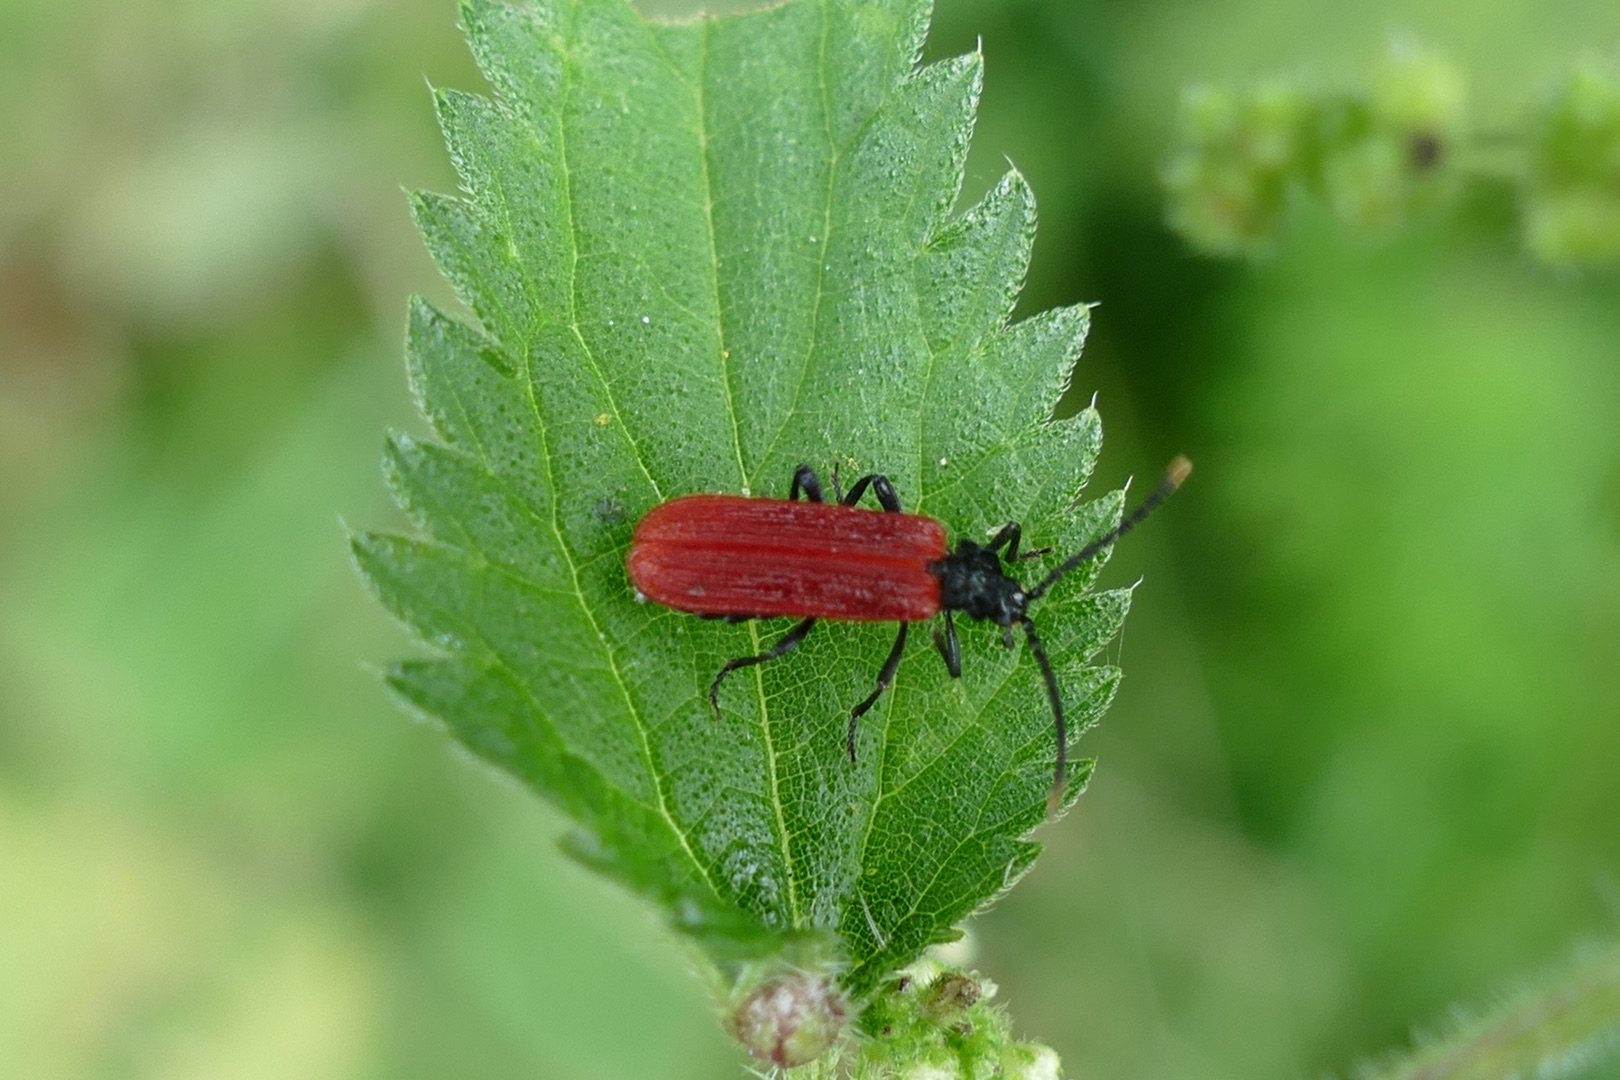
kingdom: Animalia
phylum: Arthropoda
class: Insecta
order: Coleoptera
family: Lycidae
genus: Platycis
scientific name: Platycis minutus
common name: Lille maskebille
